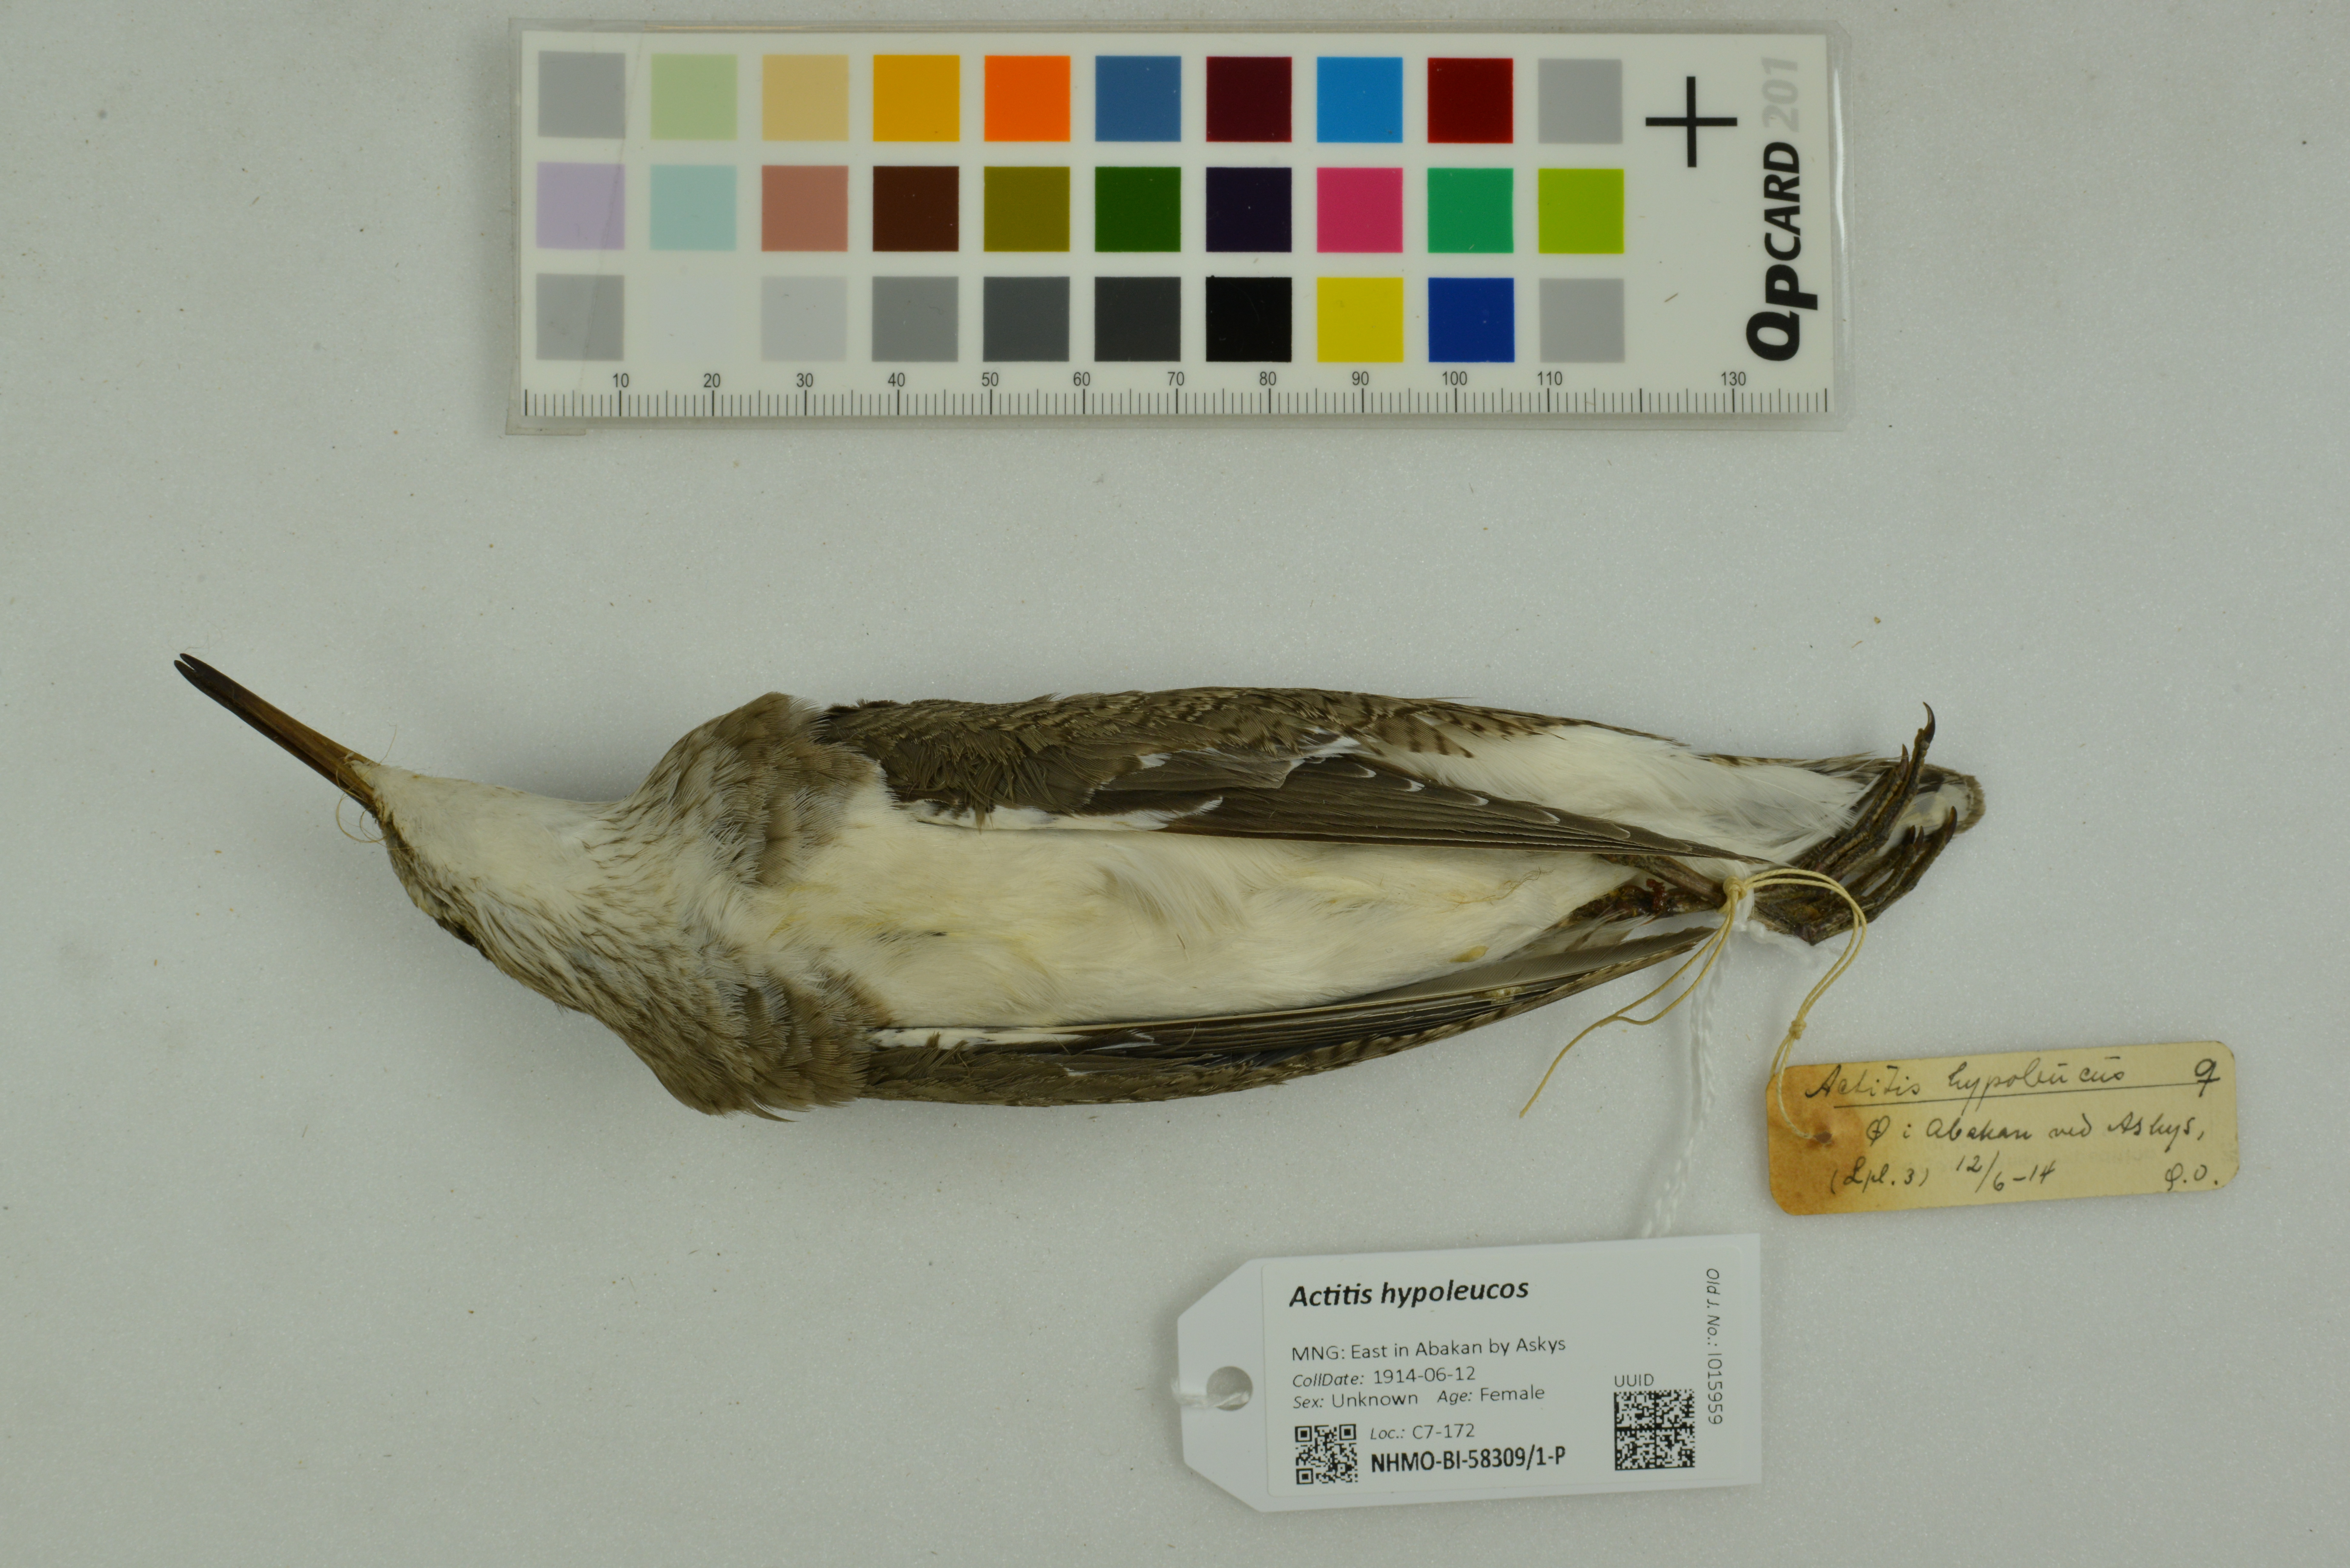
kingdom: Animalia
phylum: Chordata
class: Aves
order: Charadriiformes
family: Scolopacidae
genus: Actitis
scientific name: Actitis hypoleucos
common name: Common sandpiper
